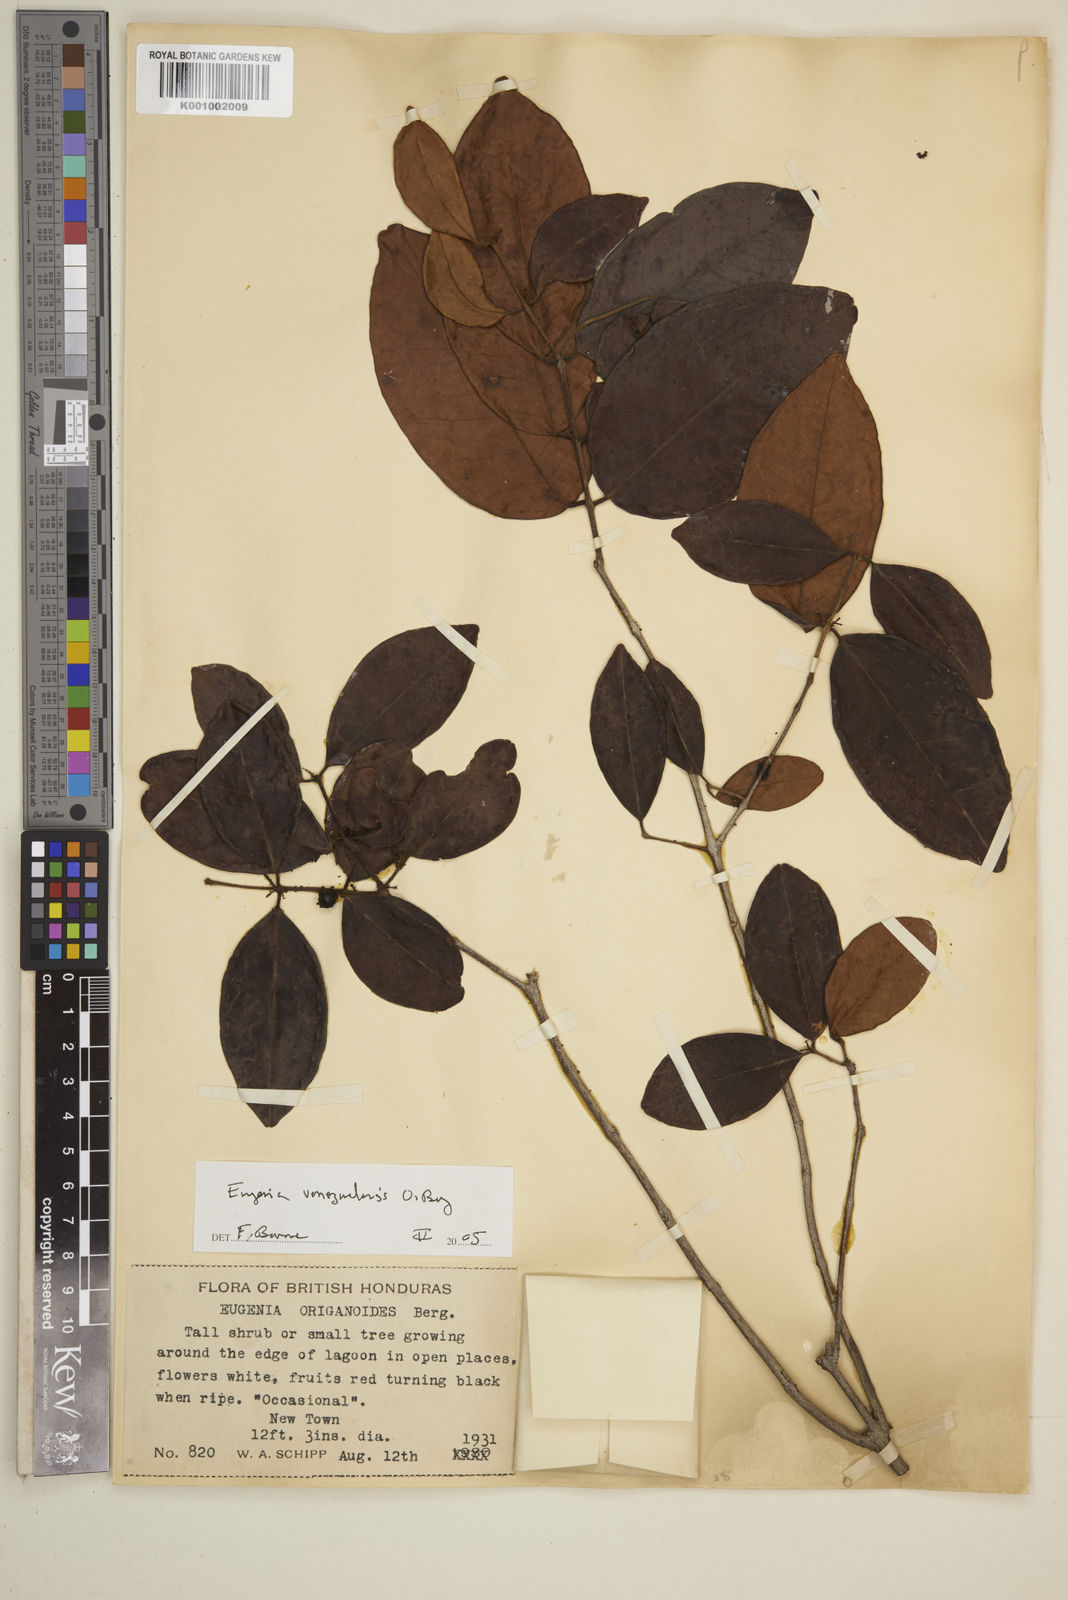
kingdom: Plantae
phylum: Tracheophyta
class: Magnoliopsida
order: Myrtales
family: Myrtaceae
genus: Eugenia
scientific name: Eugenia venezuelensis
